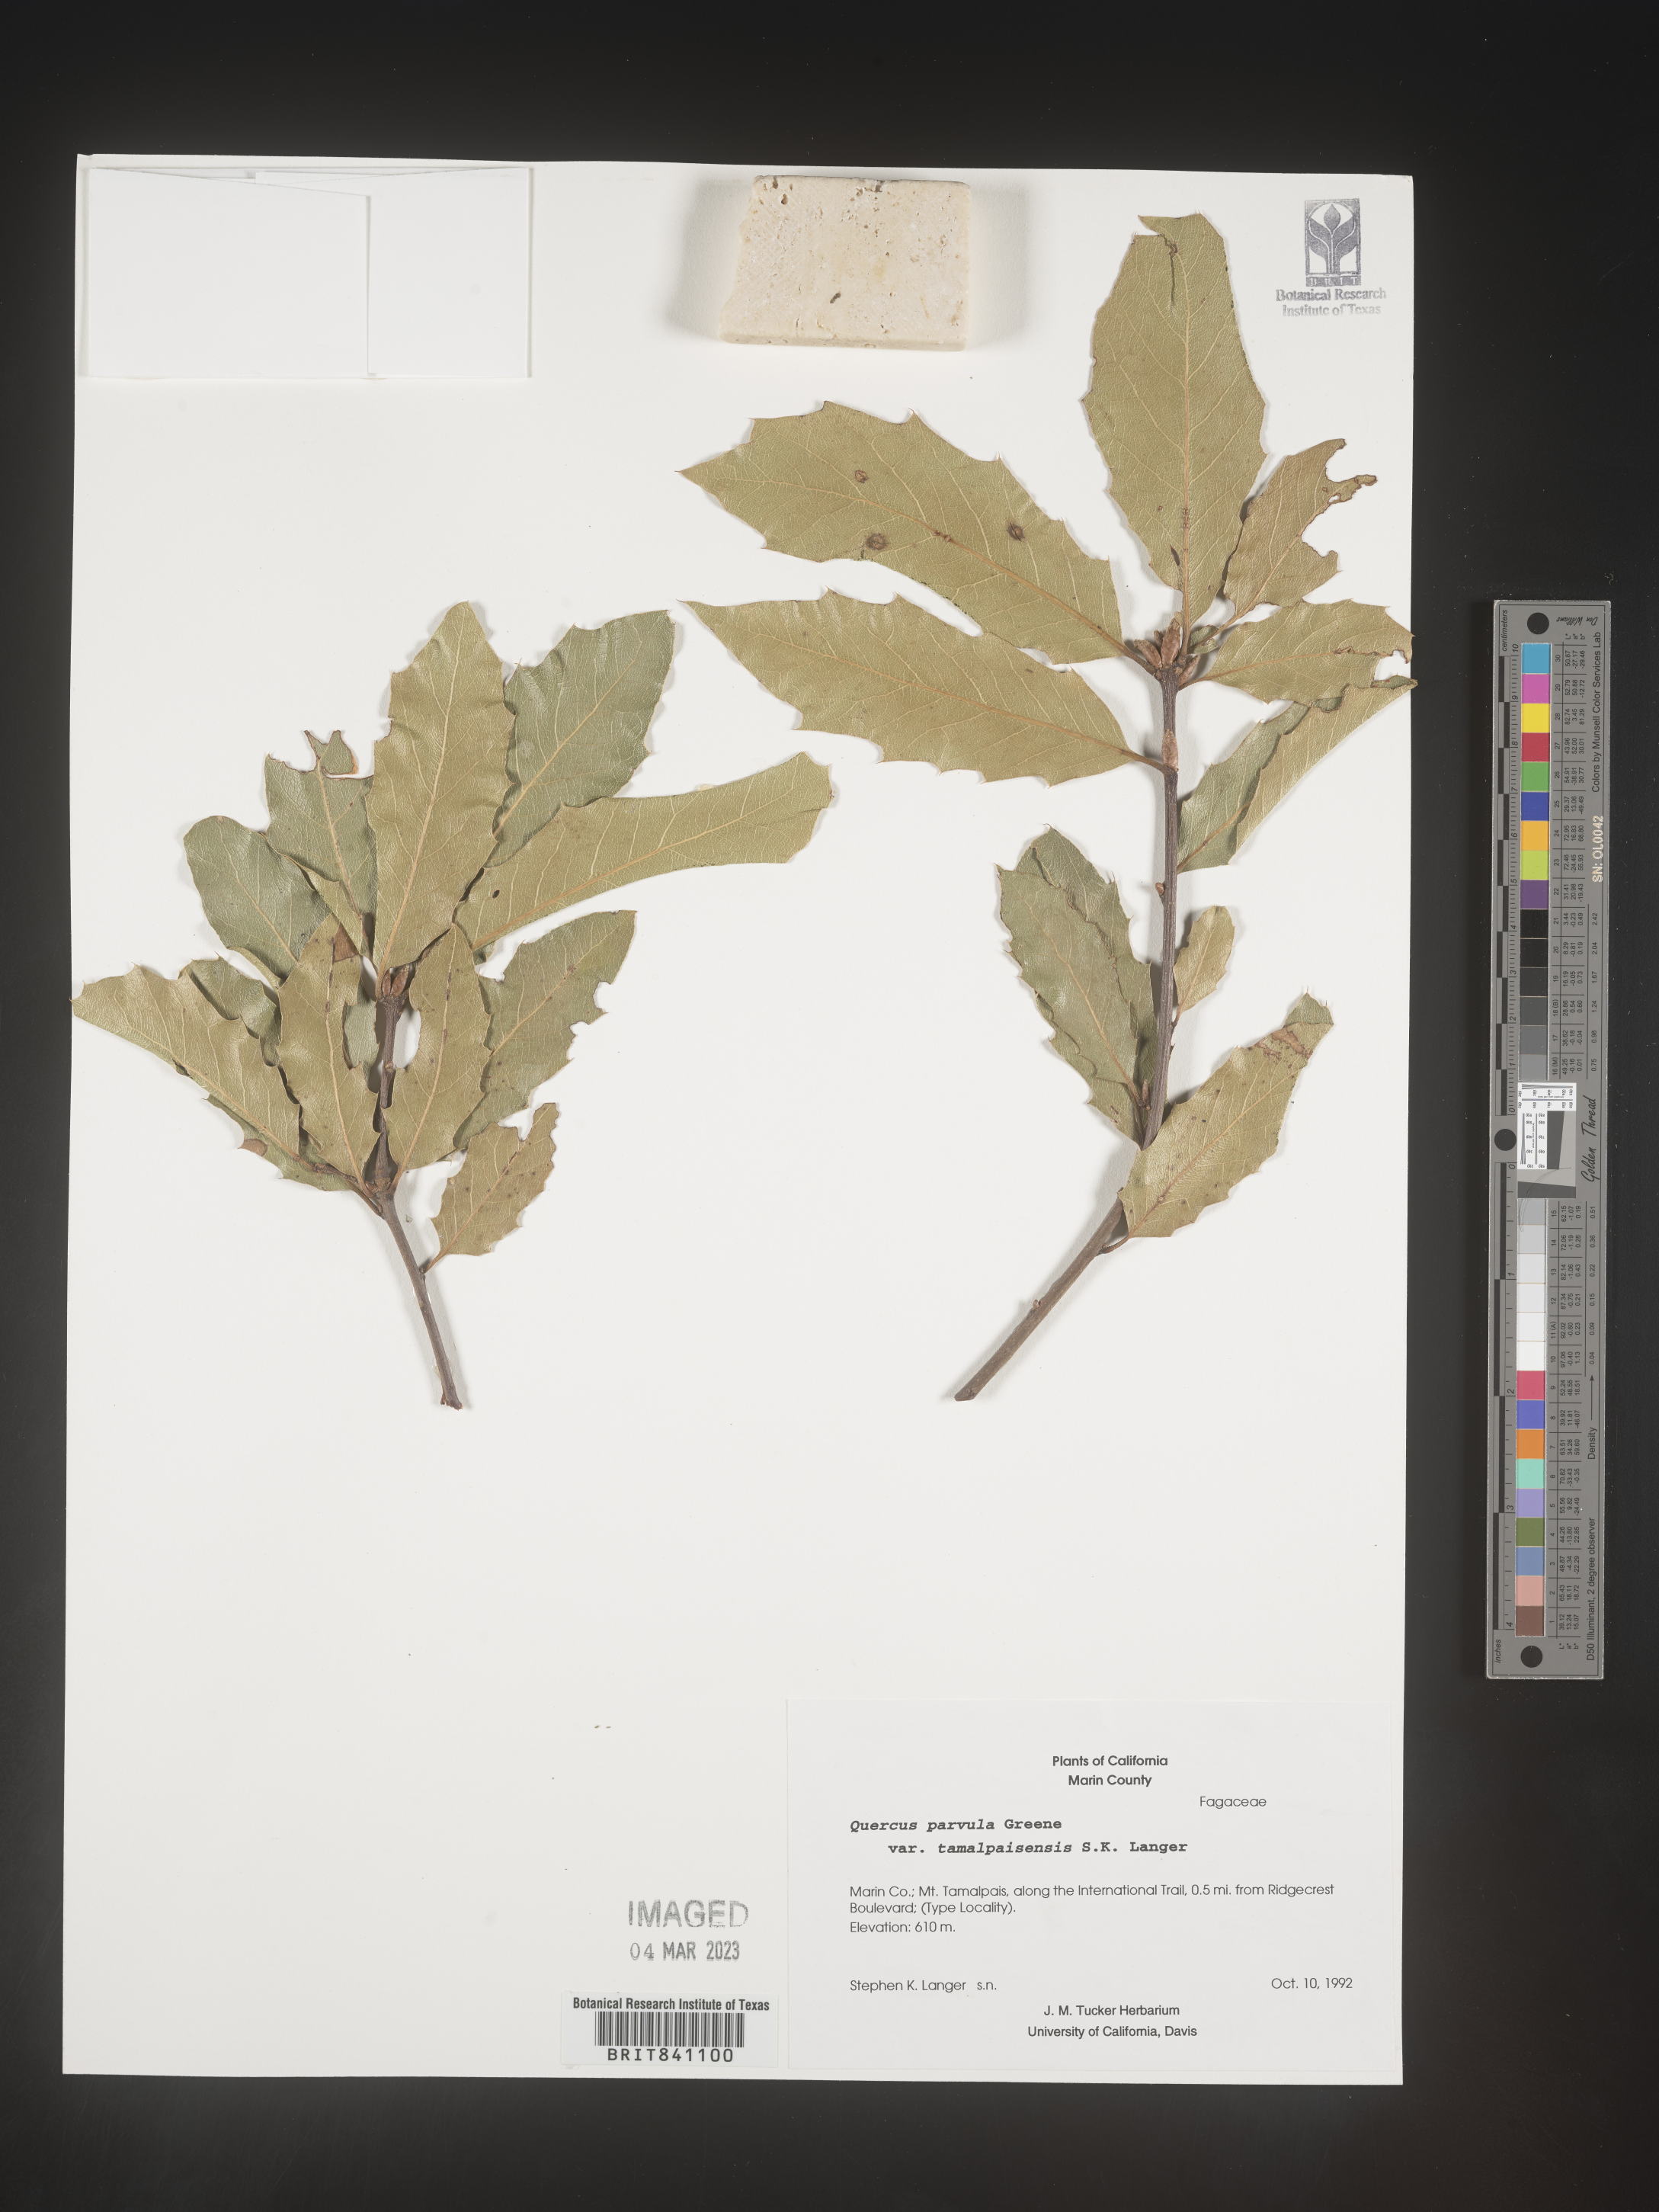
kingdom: Plantae
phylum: Tracheophyta
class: Magnoliopsida
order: Fagales
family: Fagaceae
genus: Quercus
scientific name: Quercus parvula
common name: Santa cruz island oak
